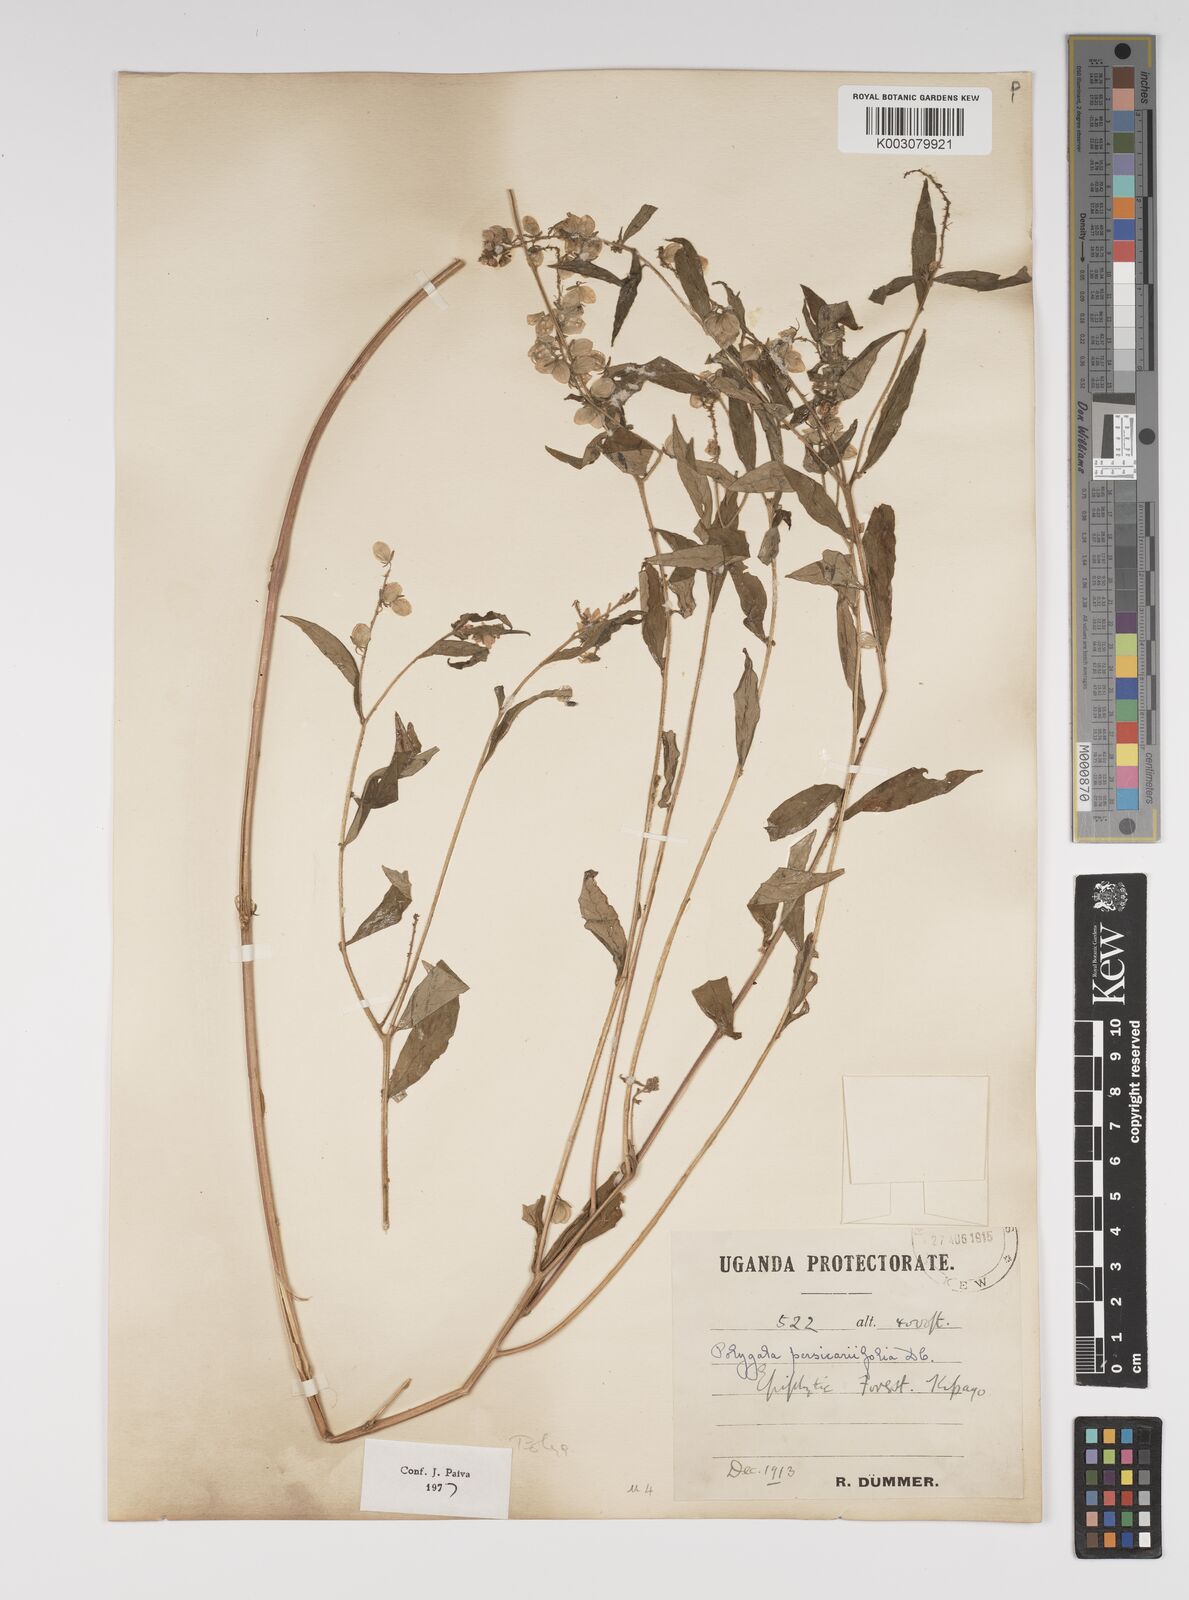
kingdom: Plantae
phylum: Tracheophyta
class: Magnoliopsida
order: Fabales
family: Polygalaceae
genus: Polygala
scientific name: Polygala persicariifolia
